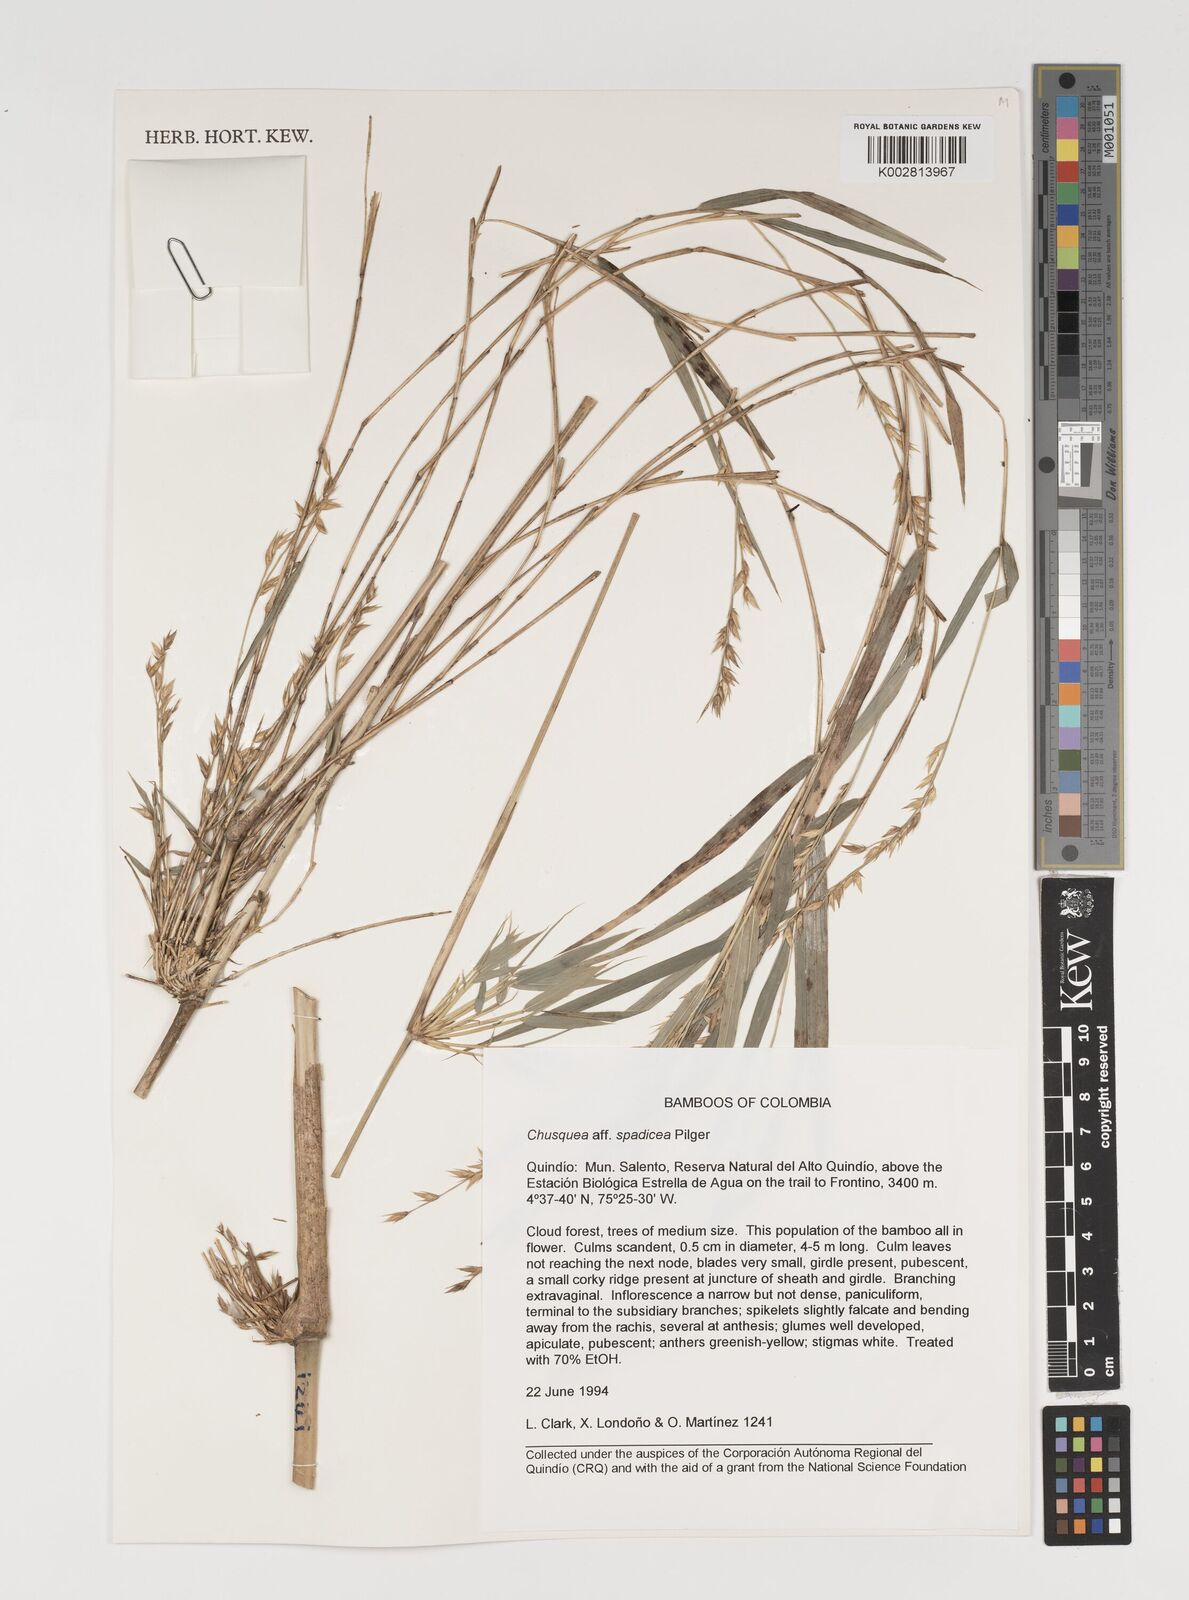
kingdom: Plantae
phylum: Tracheophyta
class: Liliopsida
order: Poales
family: Poaceae
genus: Chusquea
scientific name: Chusquea spadicea
